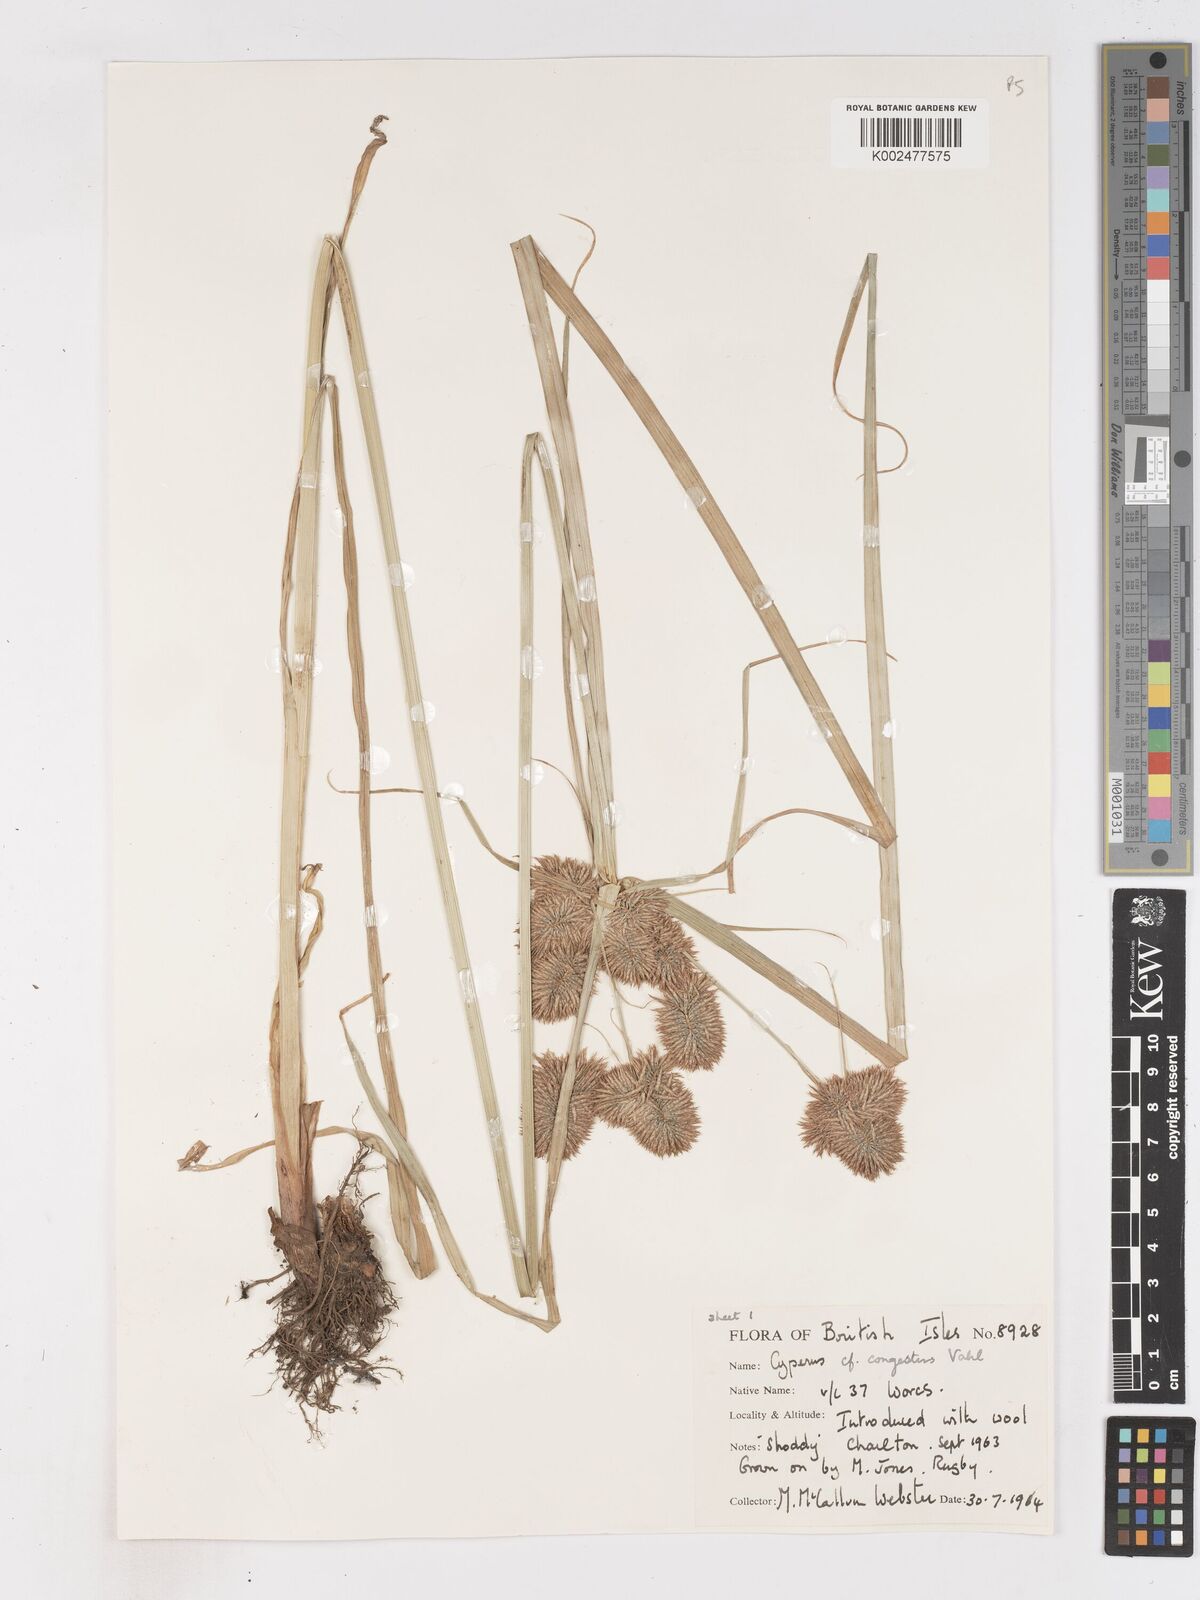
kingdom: Plantae
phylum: Tracheophyta
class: Liliopsida
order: Poales
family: Cyperaceae
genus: Cyperus
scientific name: Cyperus congestus
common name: Dense flat sedge
